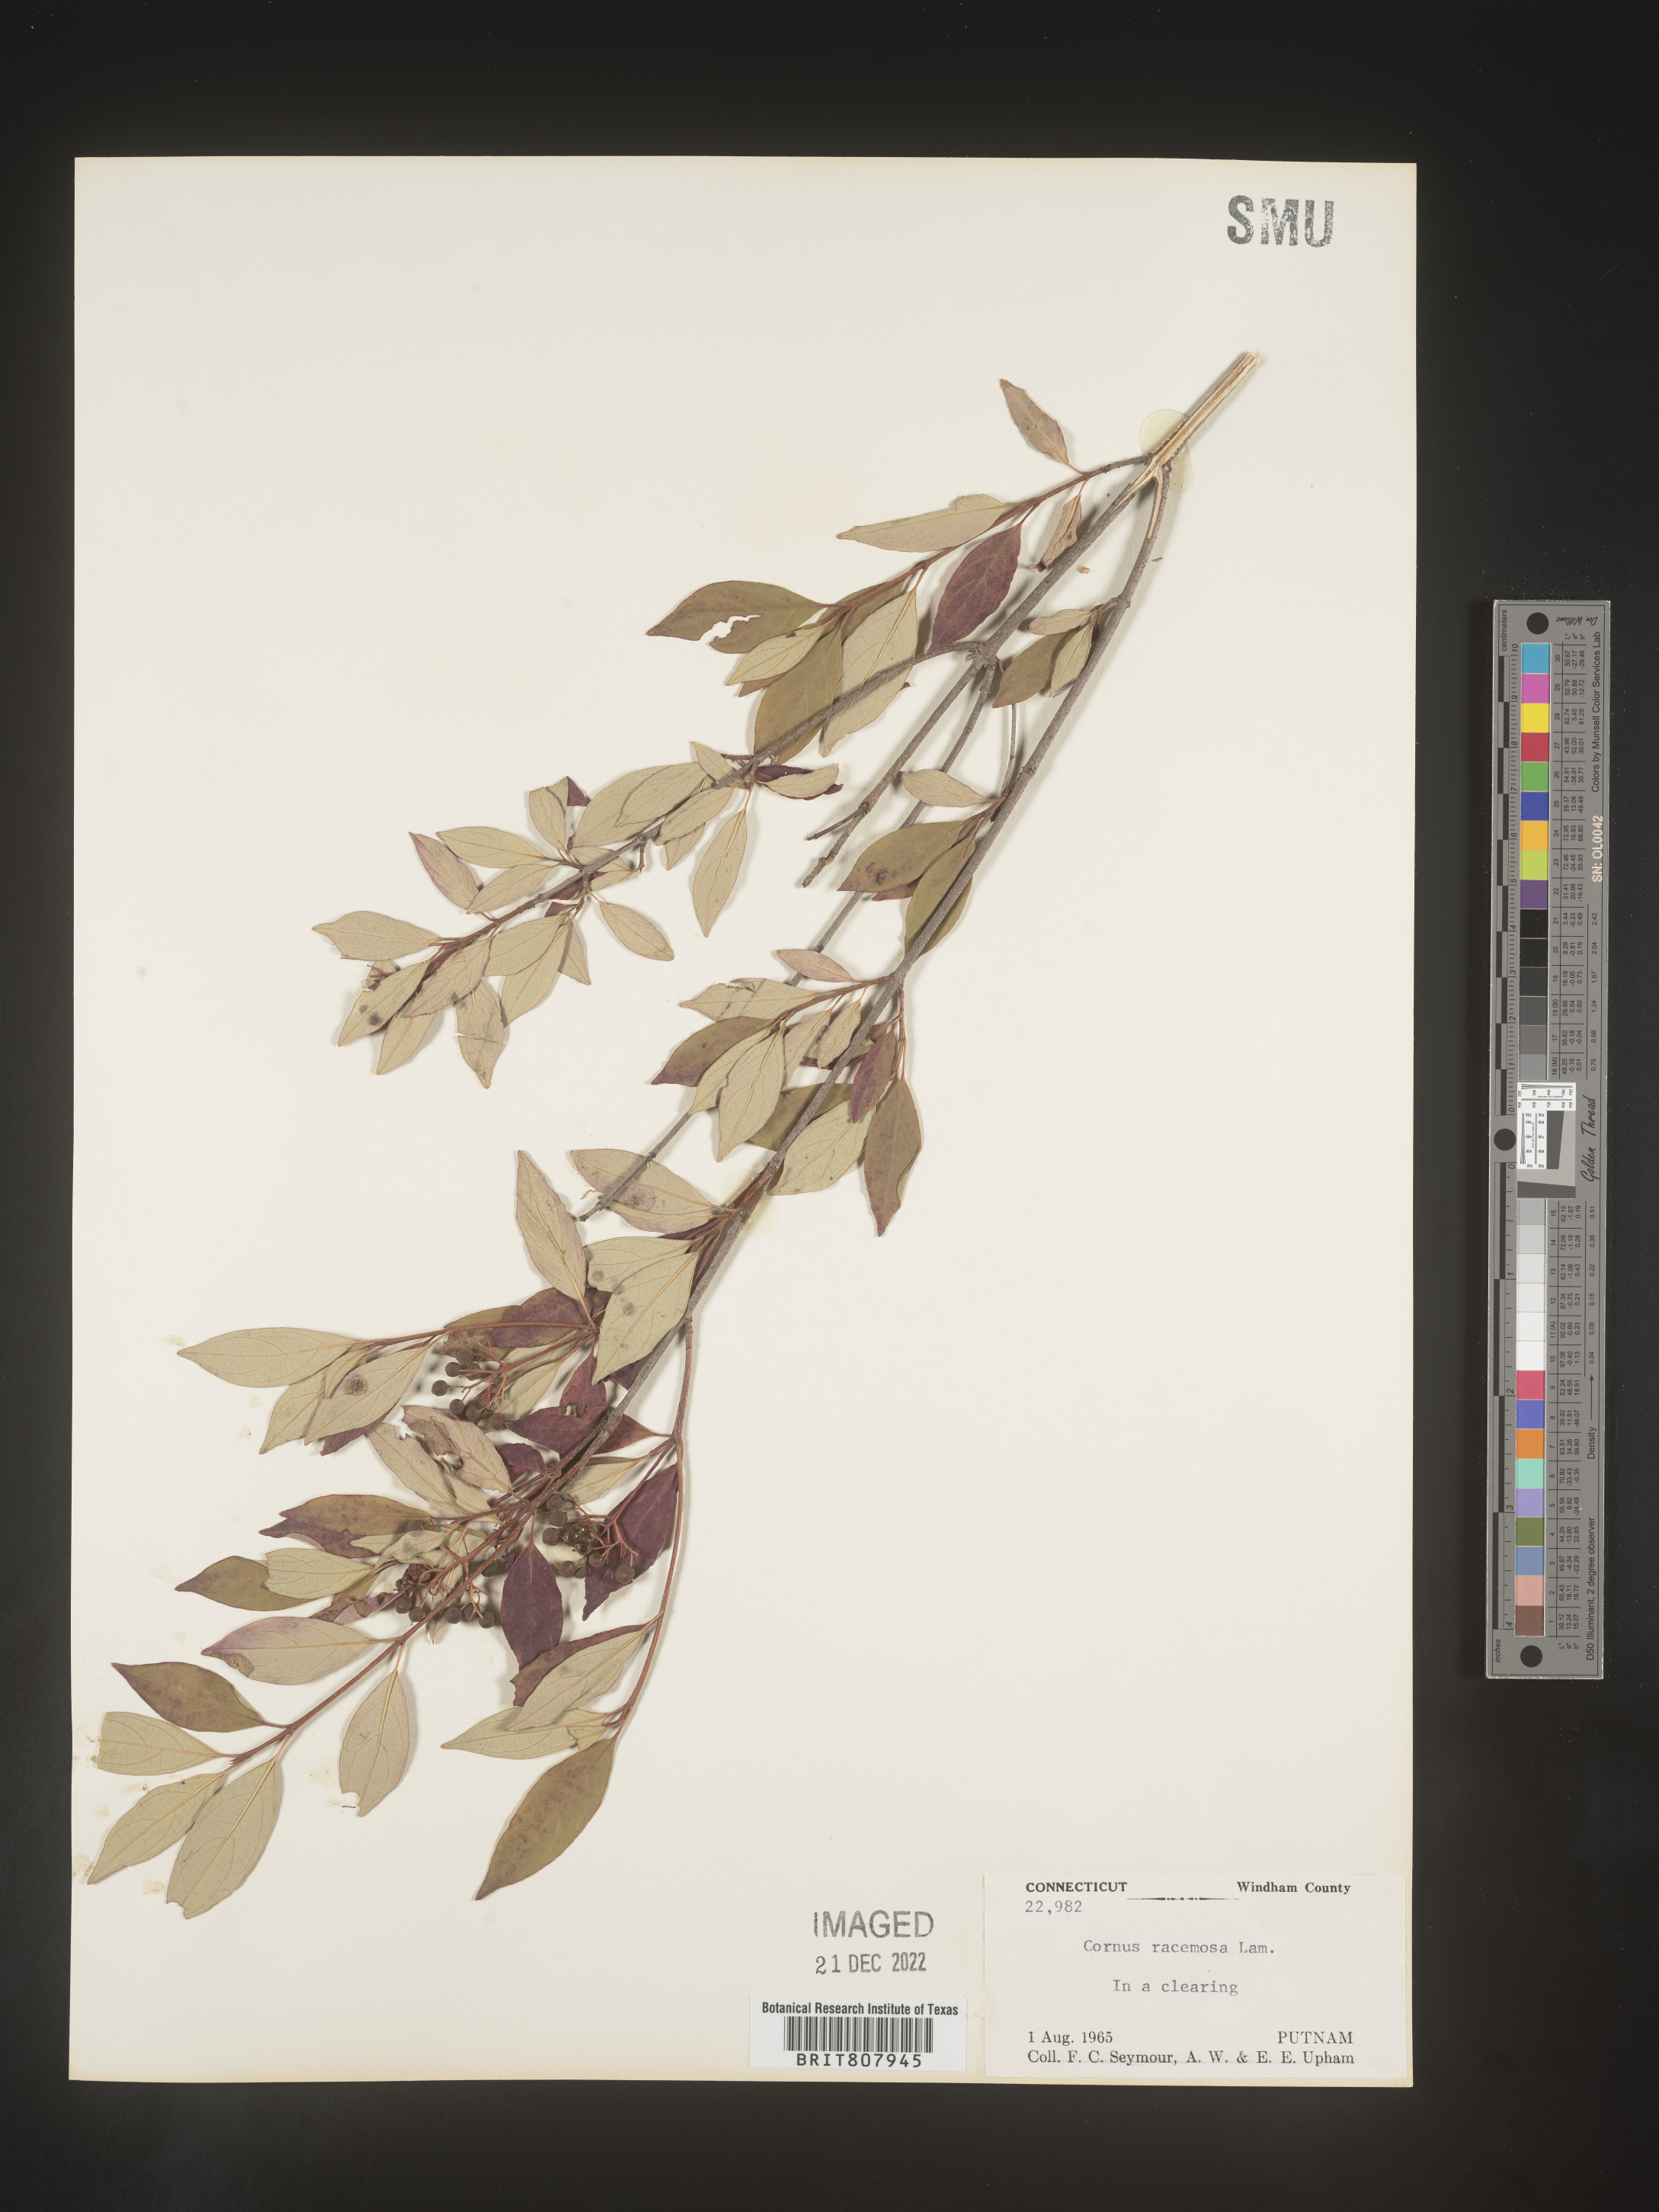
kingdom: Plantae
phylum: Tracheophyta
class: Magnoliopsida
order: Cornales
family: Cornaceae
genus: Cornus
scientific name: Cornus racemosa
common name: Panicled dogwood
